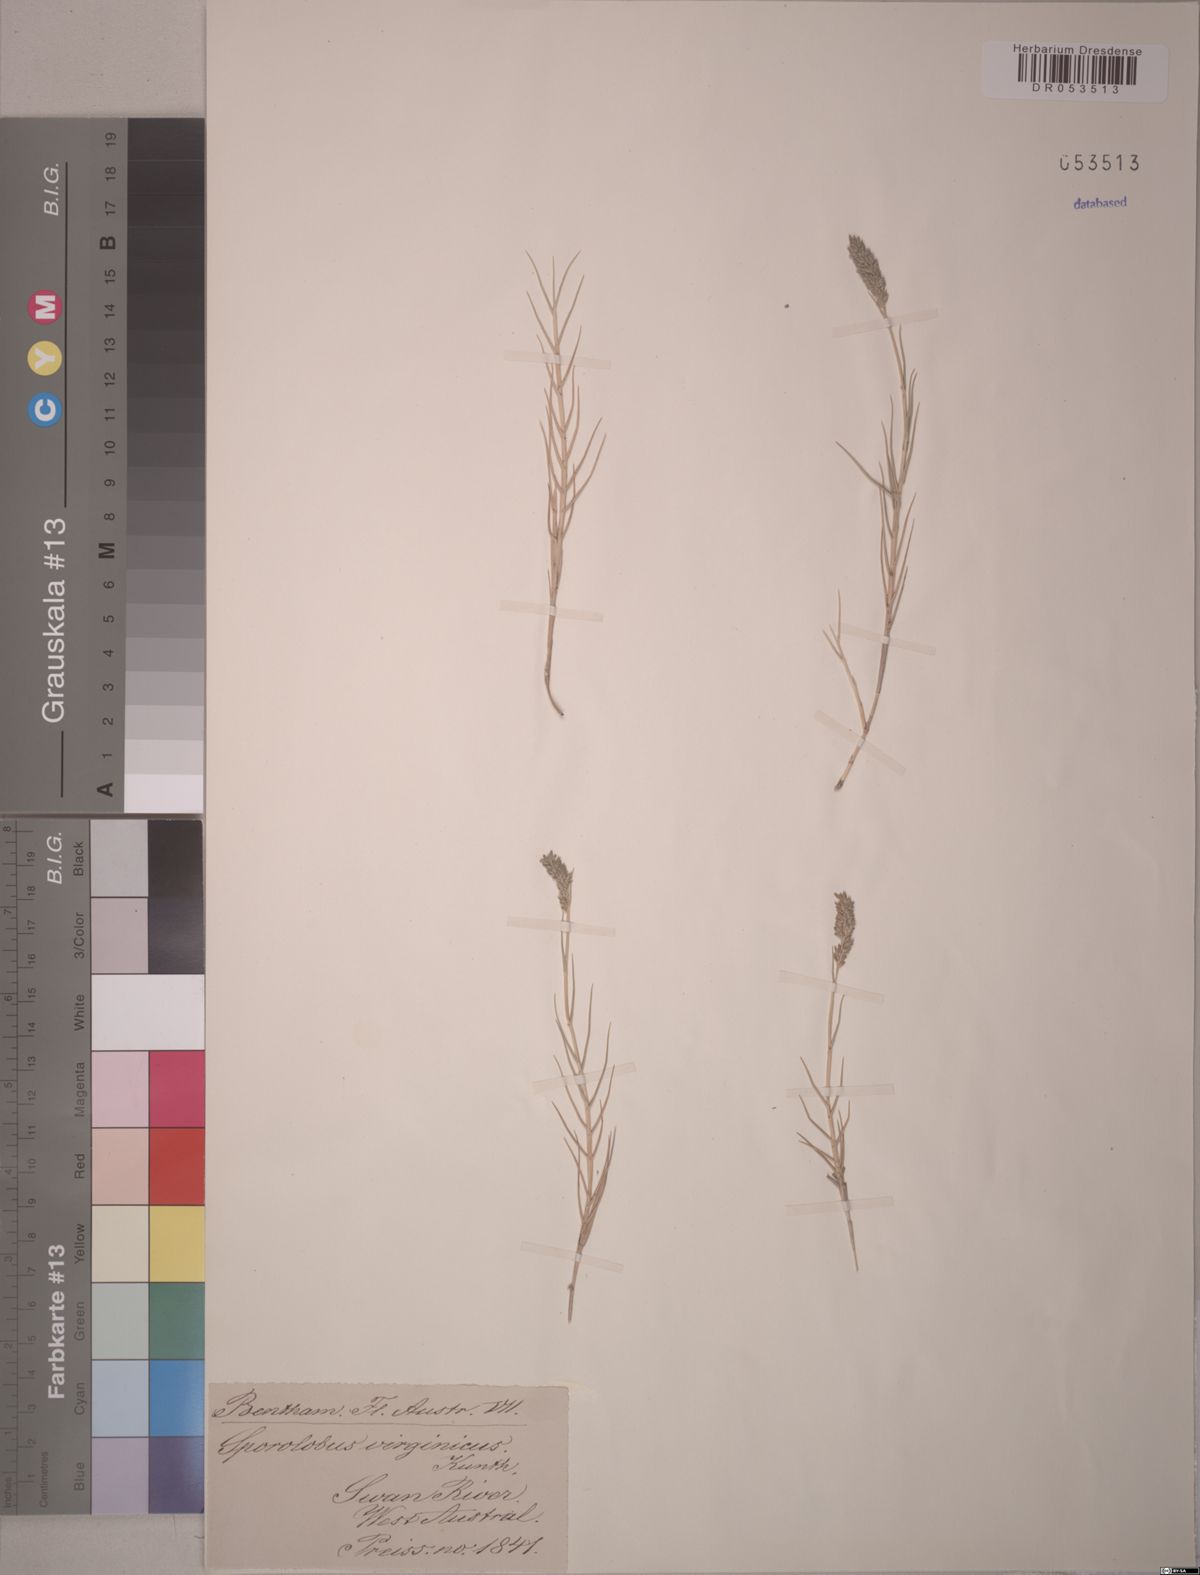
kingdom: Plantae
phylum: Tracheophyta
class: Liliopsida
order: Poales
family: Poaceae
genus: Sporobolus
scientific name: Sporobolus virginicus
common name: Beach dropseed
